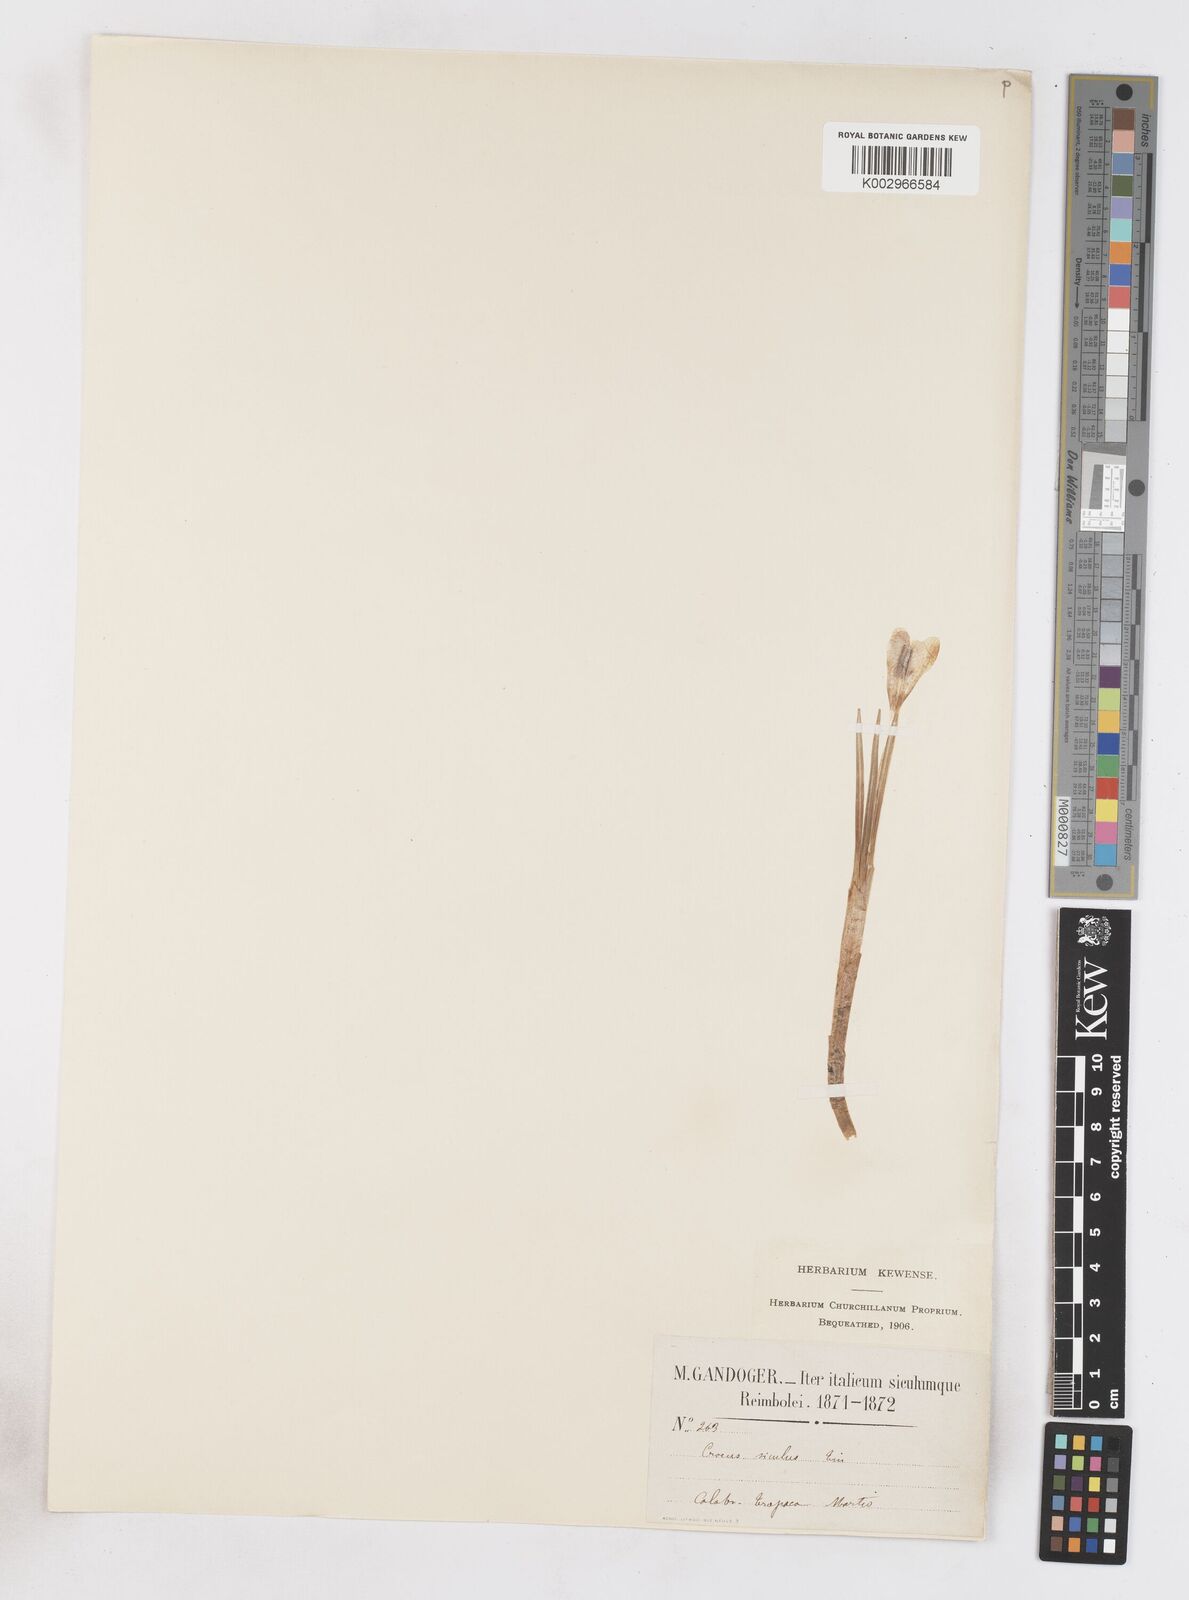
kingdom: Plantae
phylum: Tracheophyta
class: Liliopsida
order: Asparagales
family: Iridaceae
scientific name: Iridaceae
